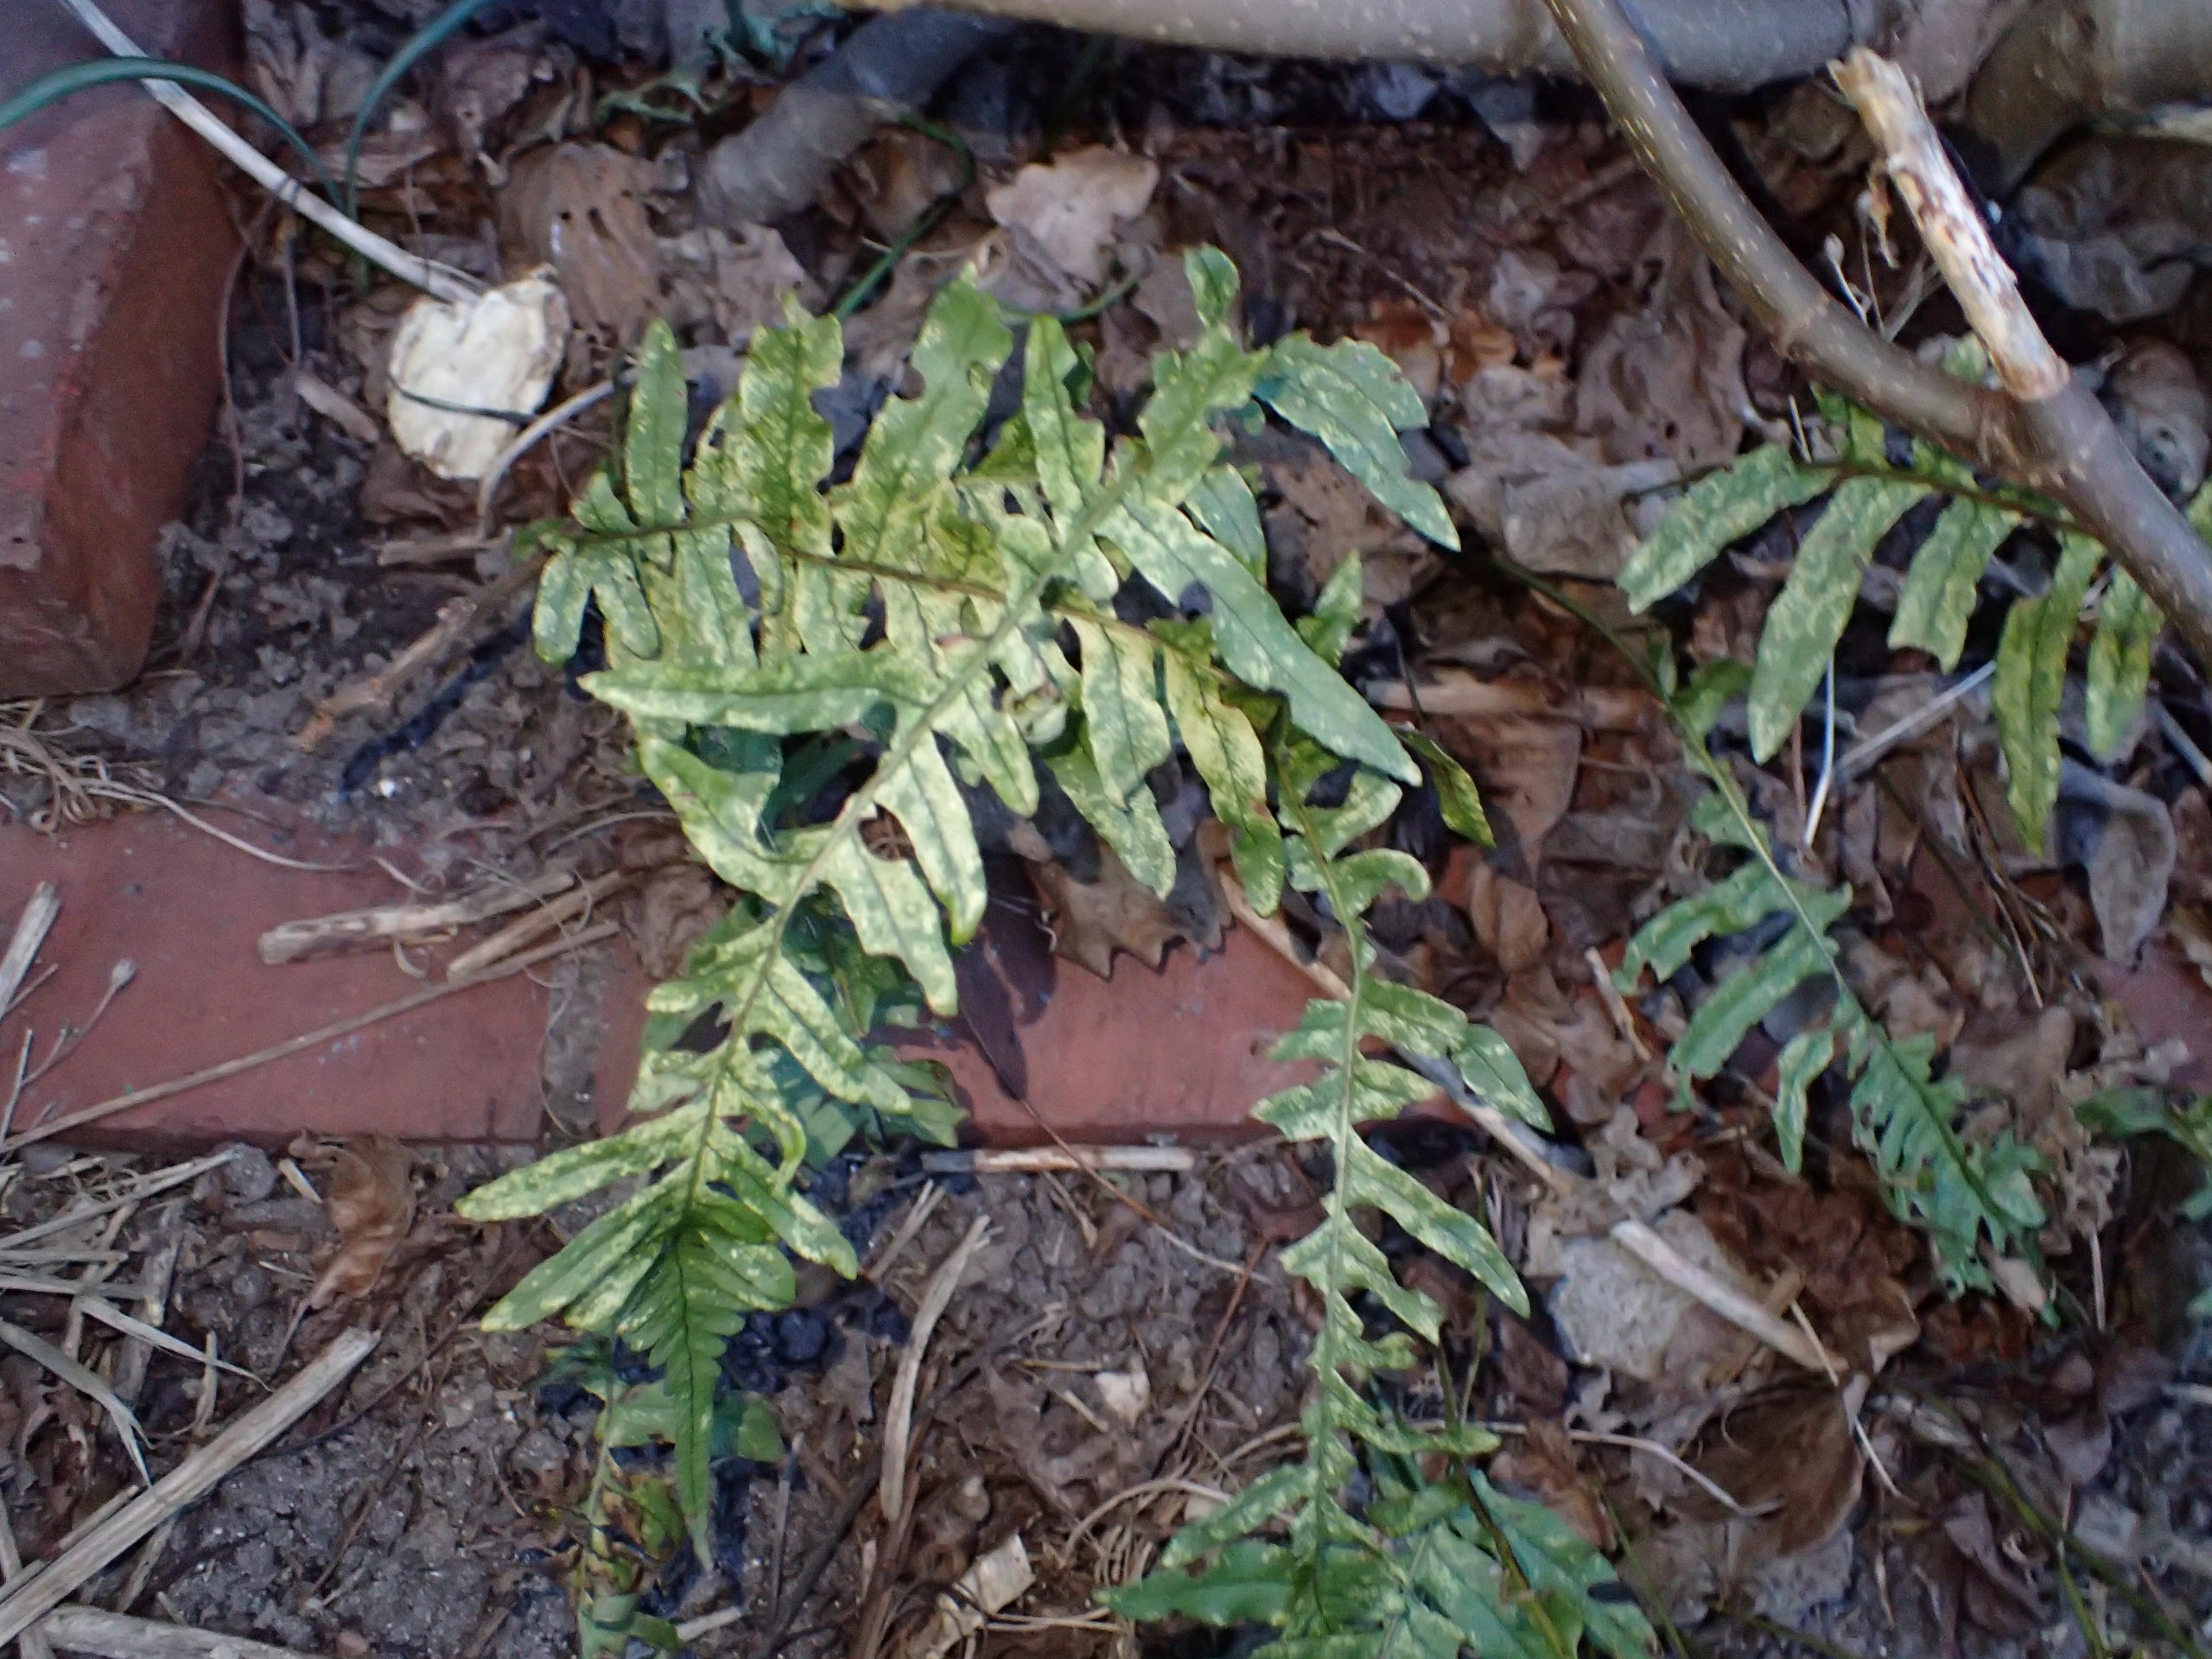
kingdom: Plantae
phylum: Tracheophyta
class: Polypodiopsida
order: Polypodiales
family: Polypodiaceae
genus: Polypodium
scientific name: Polypodium vulgare
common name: Almindelig engelsød
